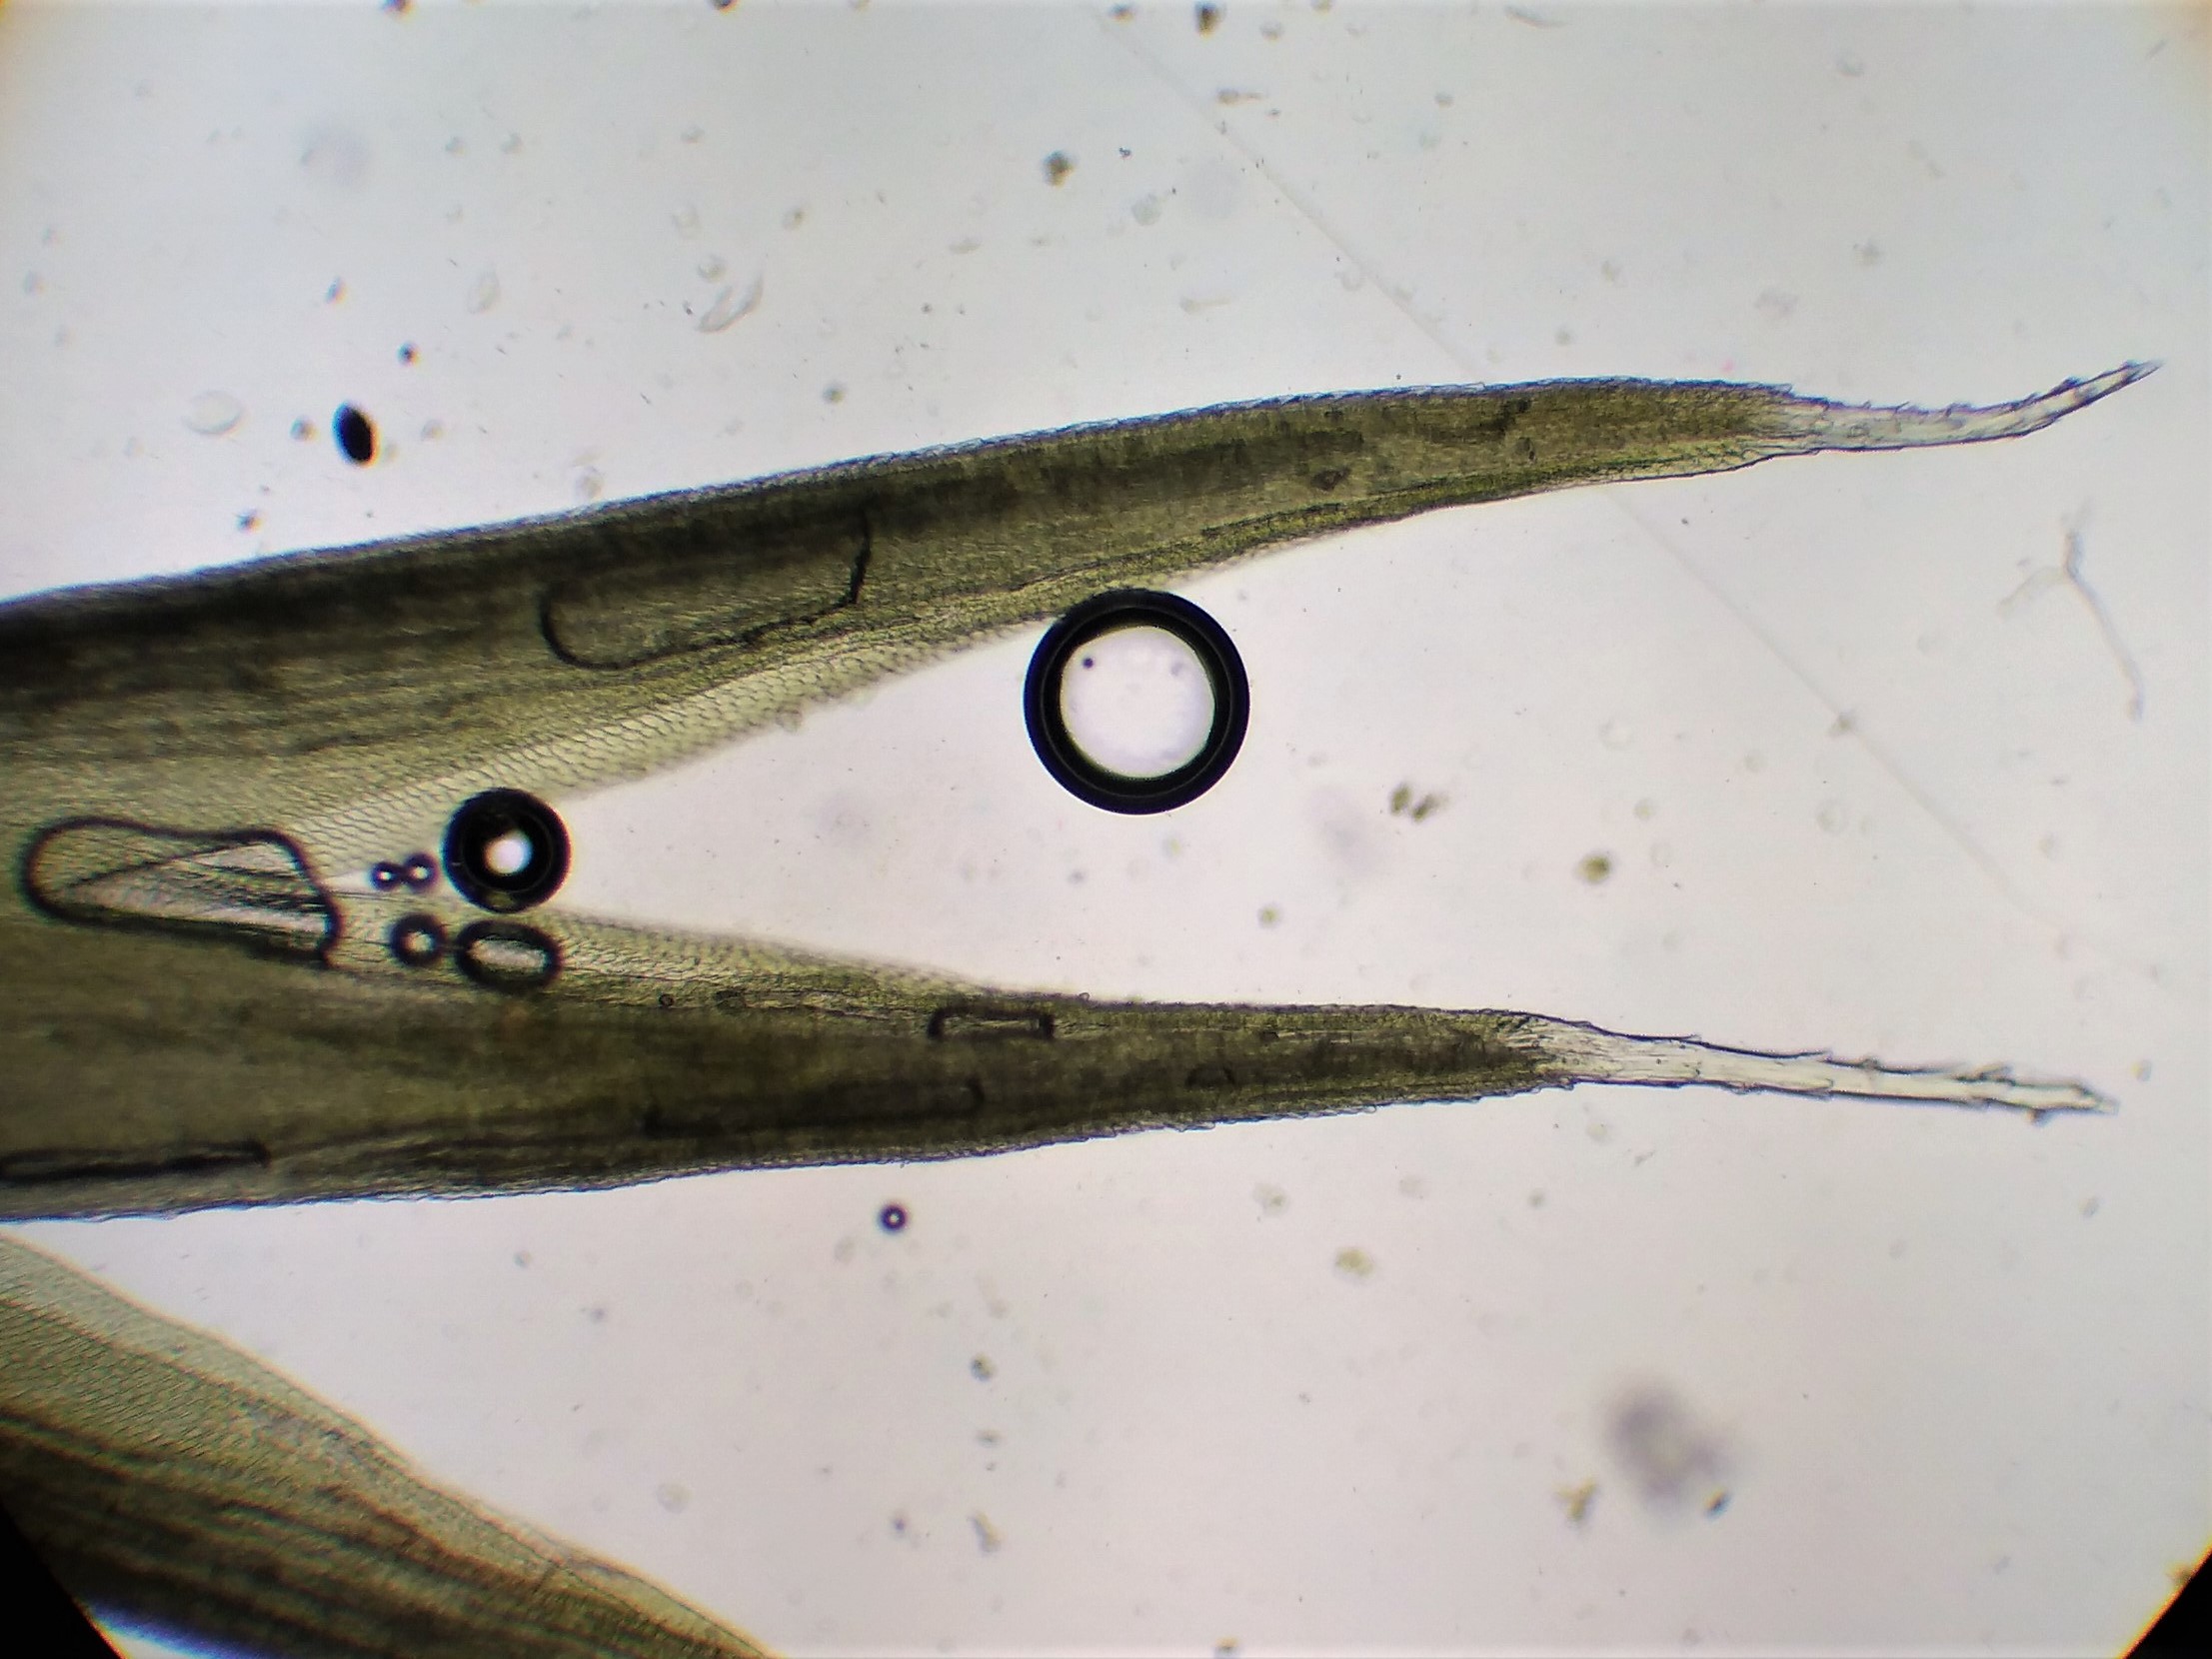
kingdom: Plantae
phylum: Bryophyta
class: Bryopsida
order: Dicranales
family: Leucobryaceae
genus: Campylopus
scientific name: Campylopus introflexus
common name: Stjerne-bredribbe
